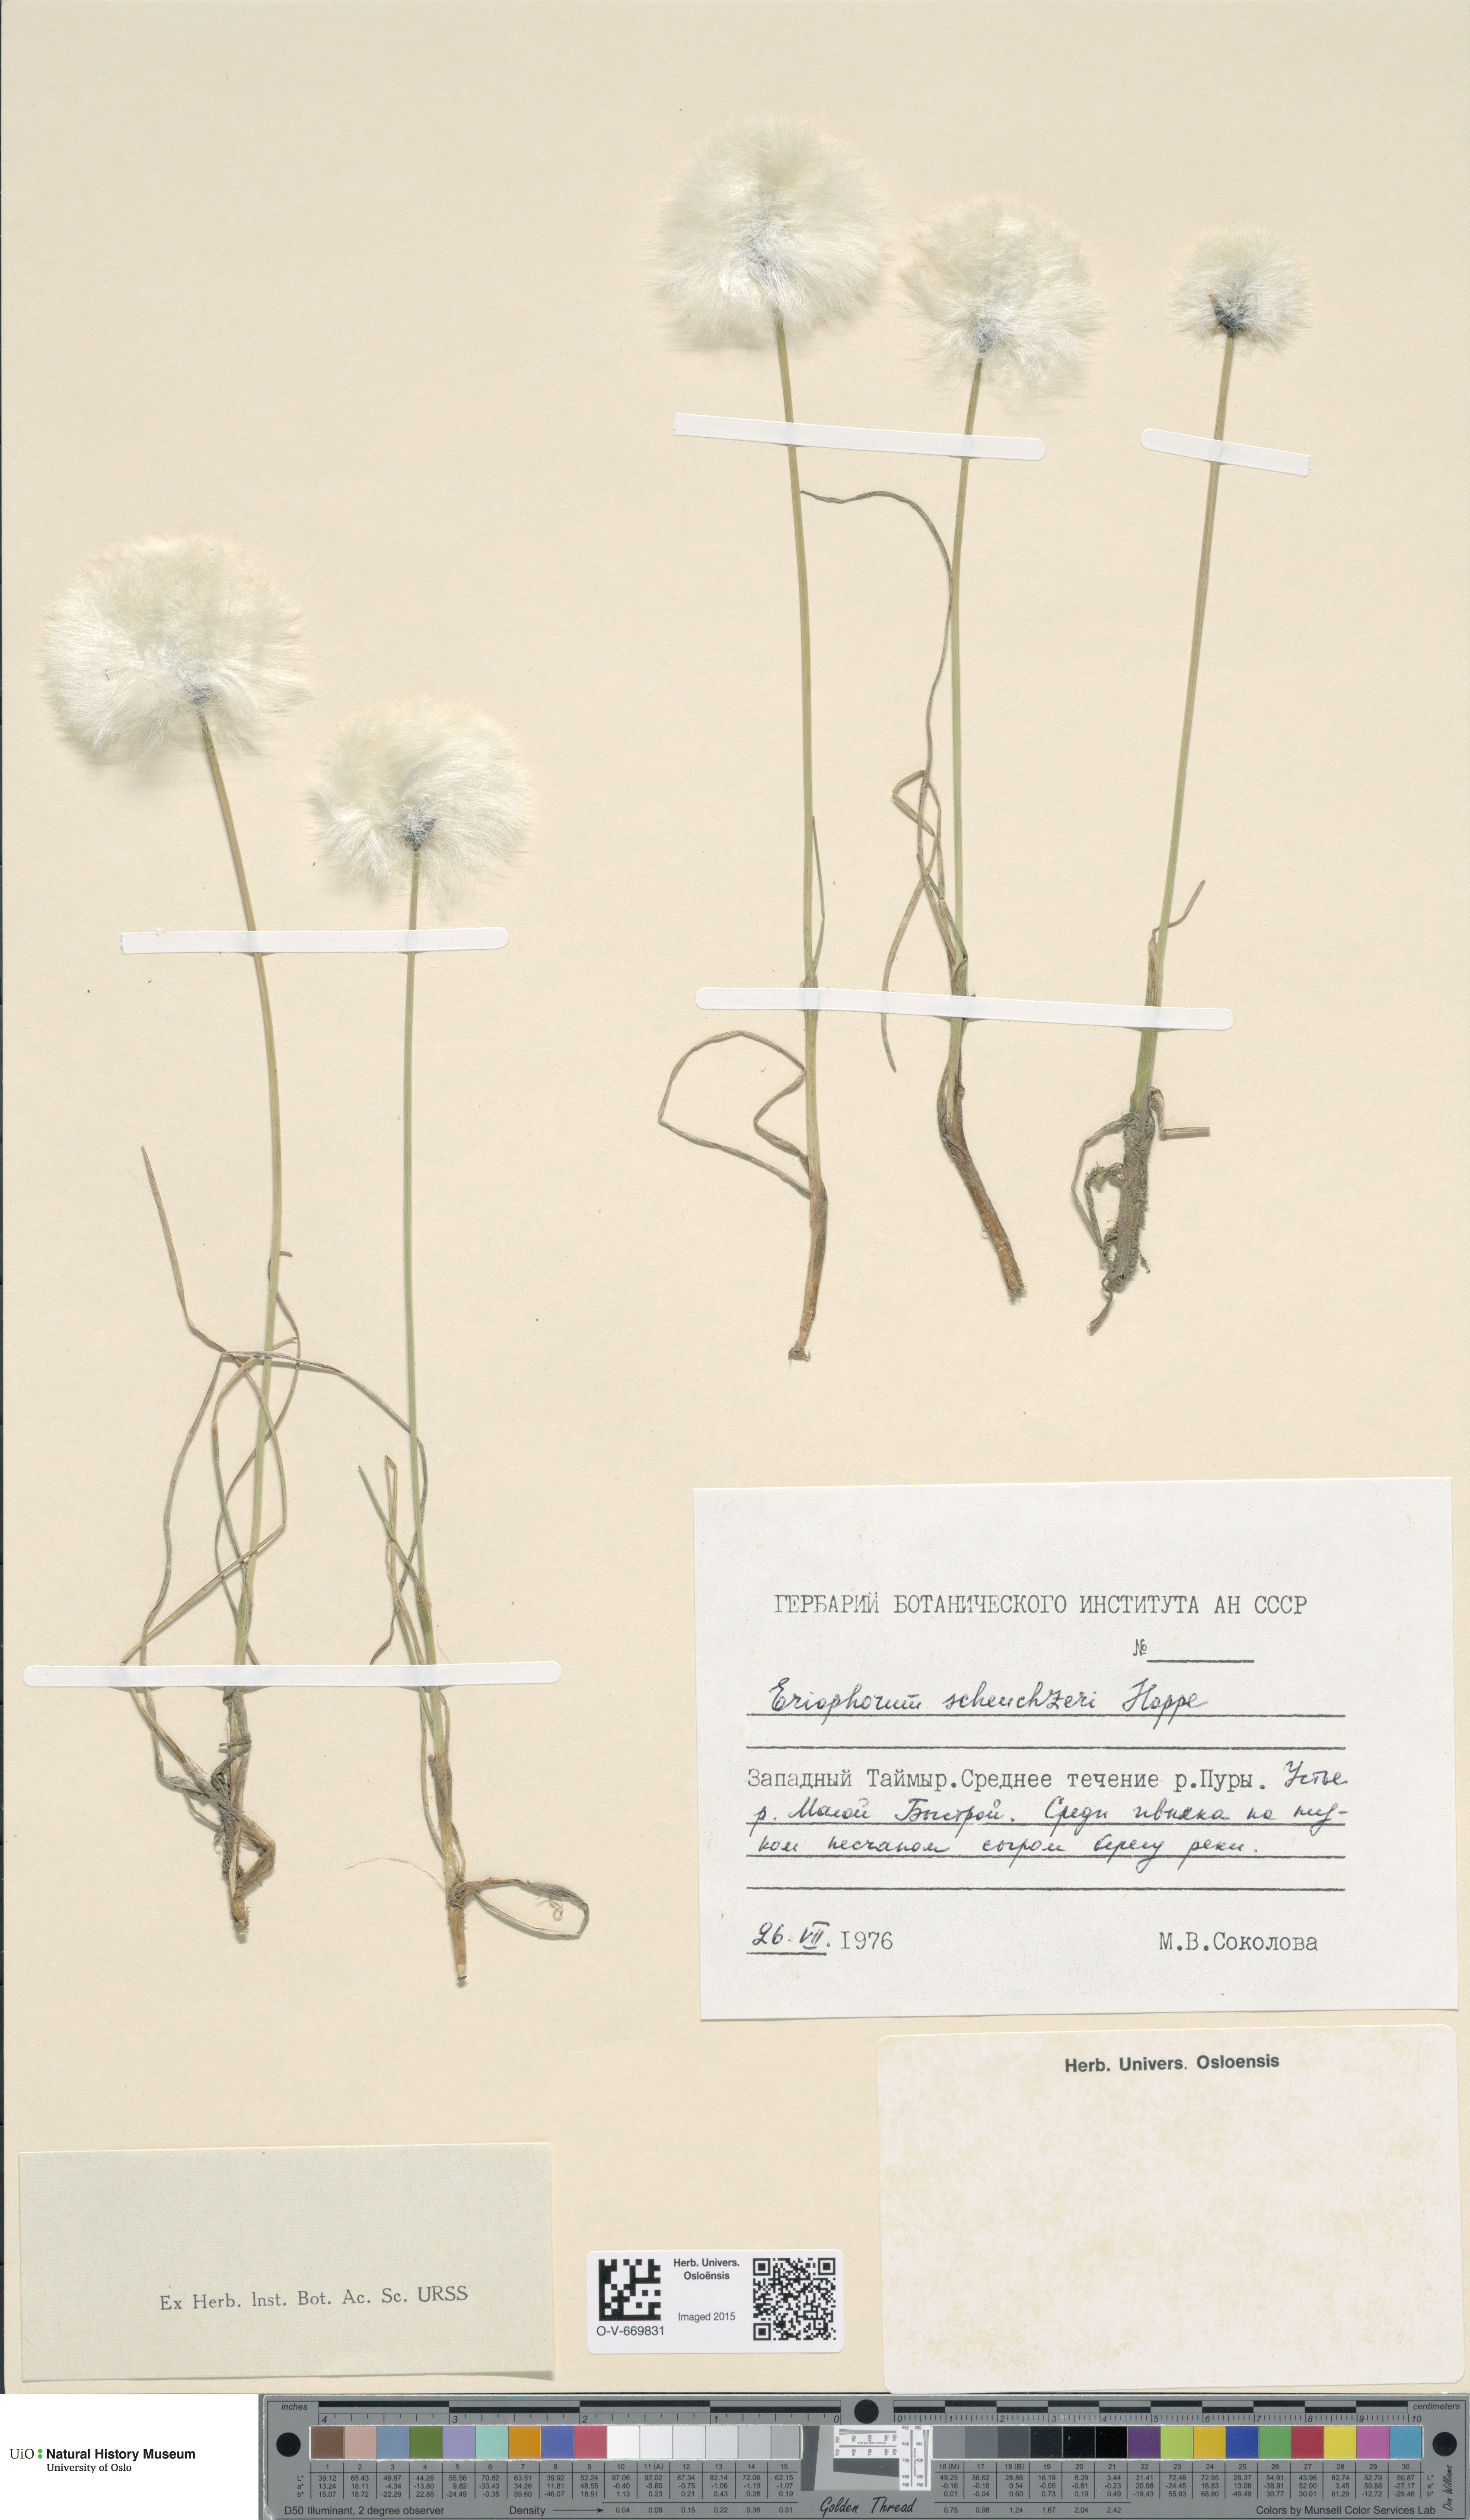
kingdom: Plantae
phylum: Tracheophyta
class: Liliopsida
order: Poales
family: Cyperaceae
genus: Eriophorum
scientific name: Eriophorum scheuchzeri
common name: Scheuchzer's cottongrass
